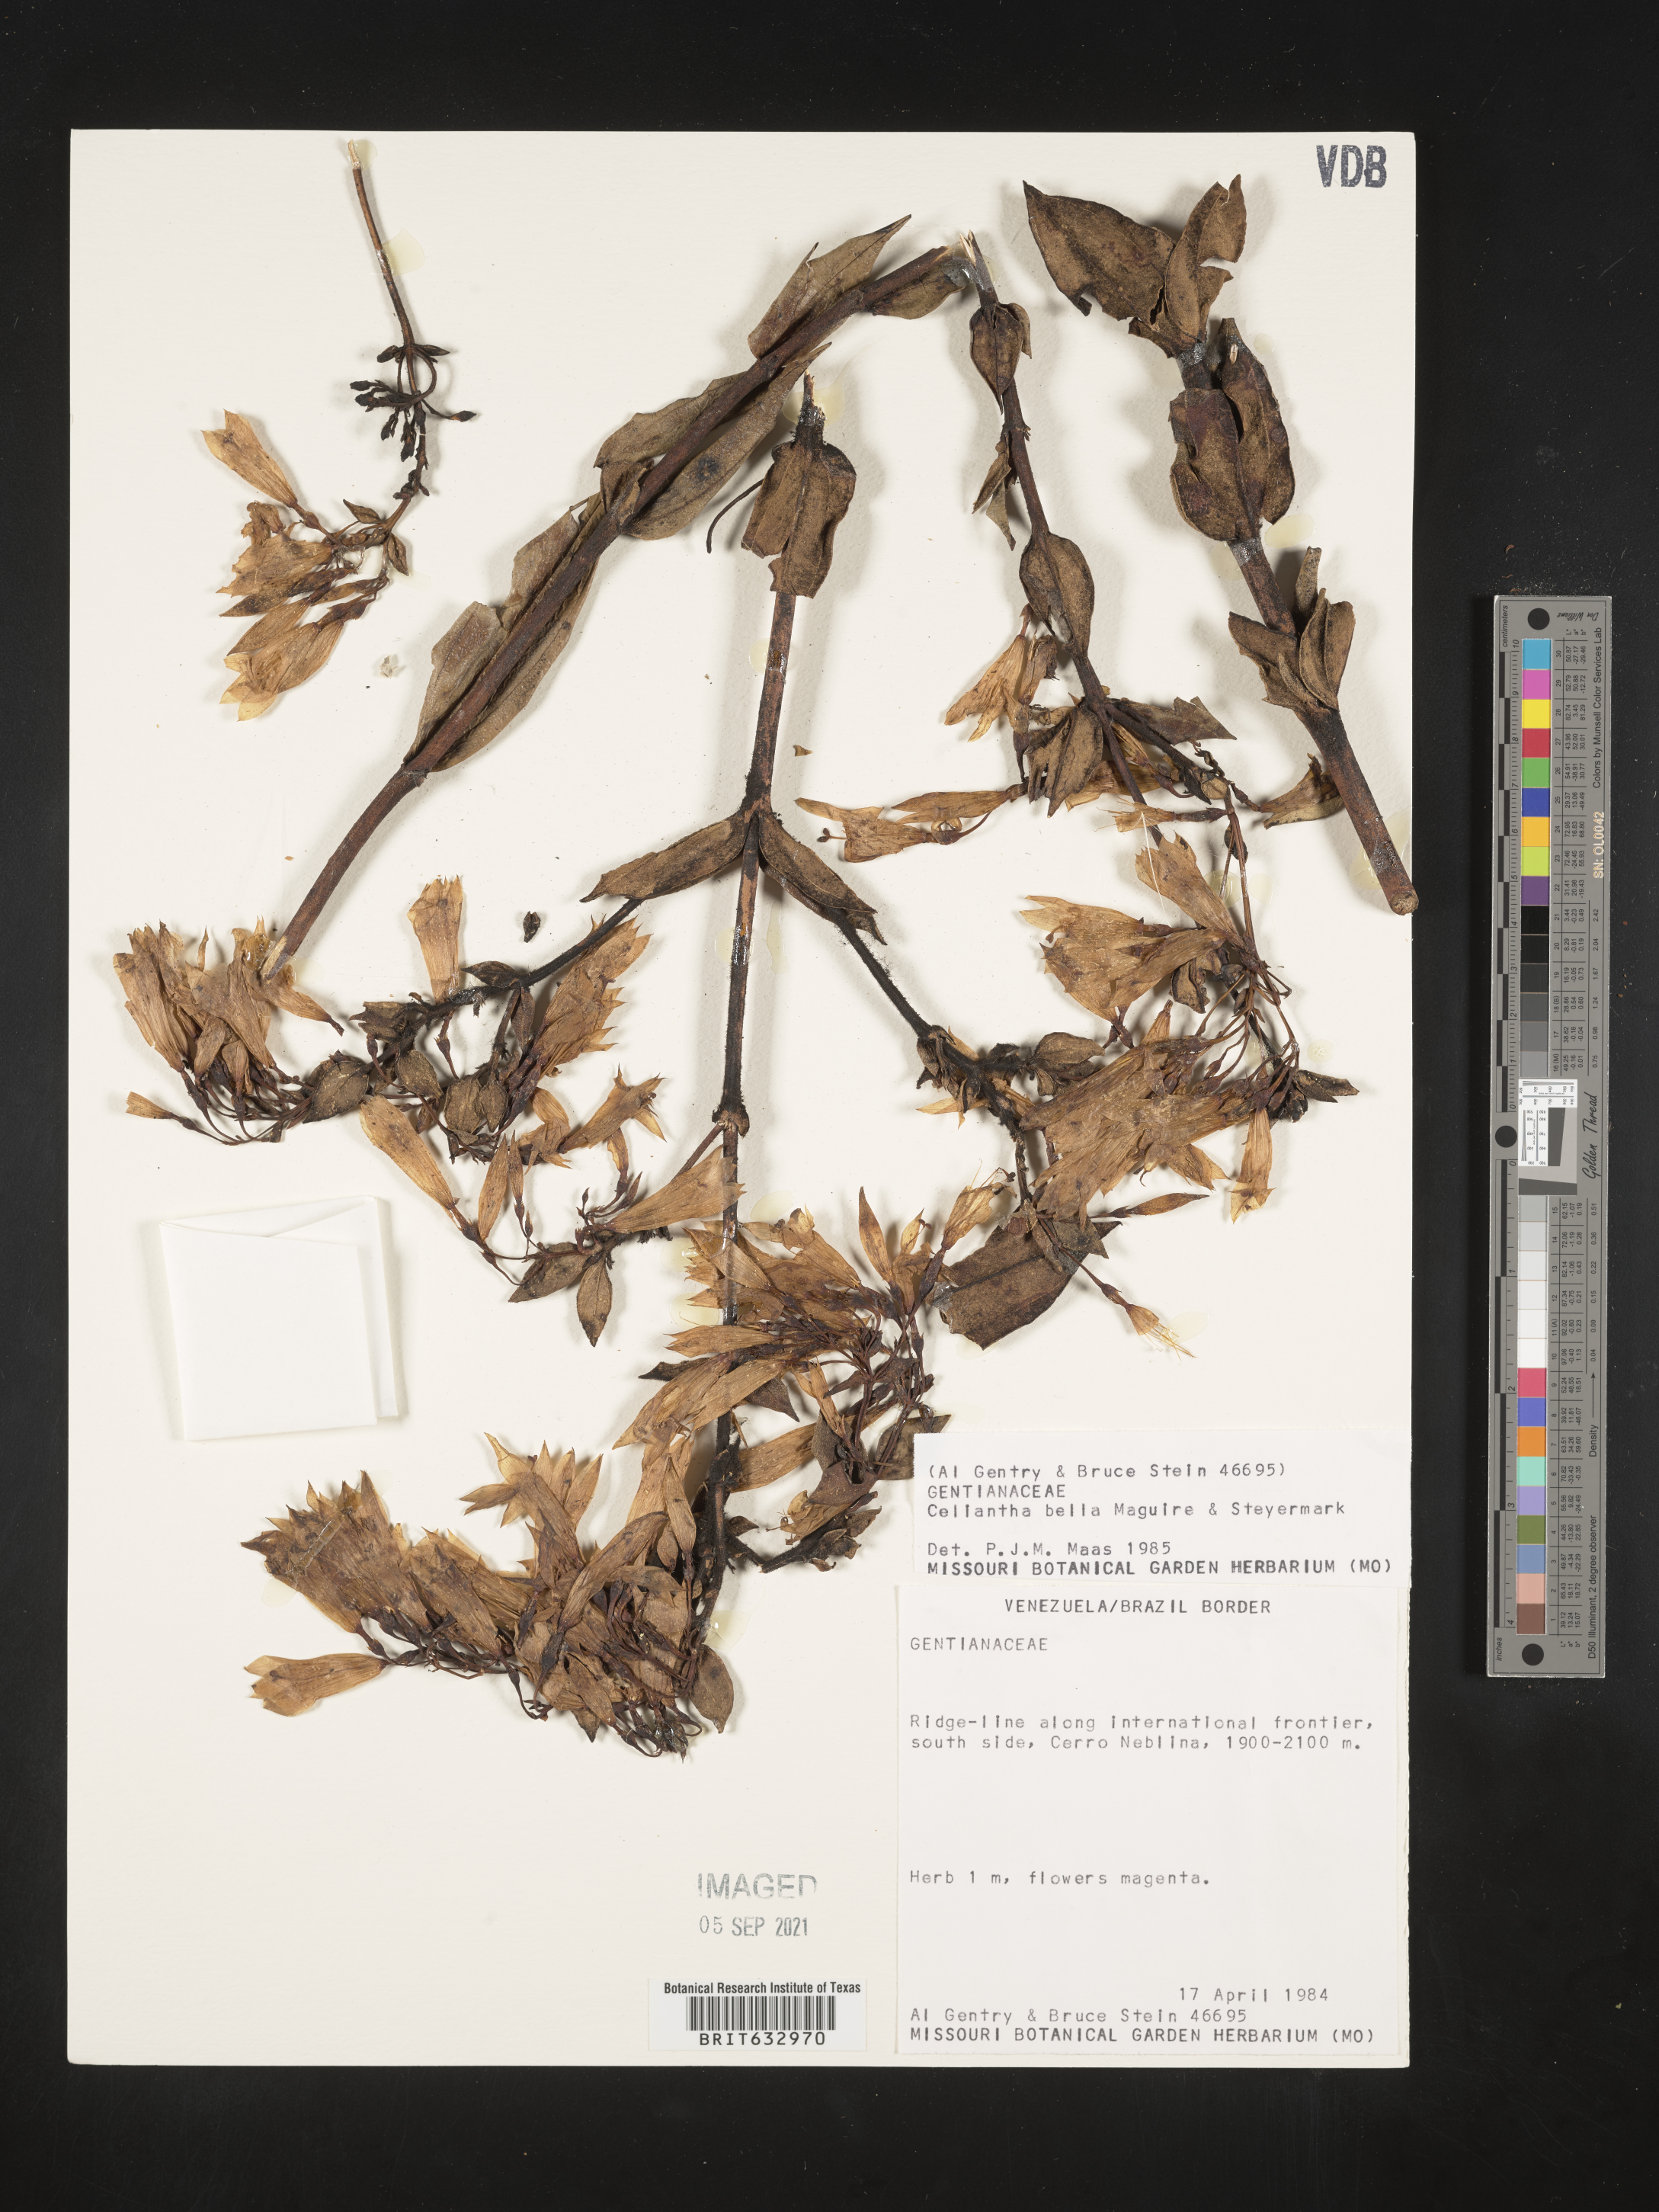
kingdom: Plantae
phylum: Tracheophyta
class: Magnoliopsida
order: Gentianales
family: Gentianaceae
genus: Celiantha
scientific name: Celiantha bella
